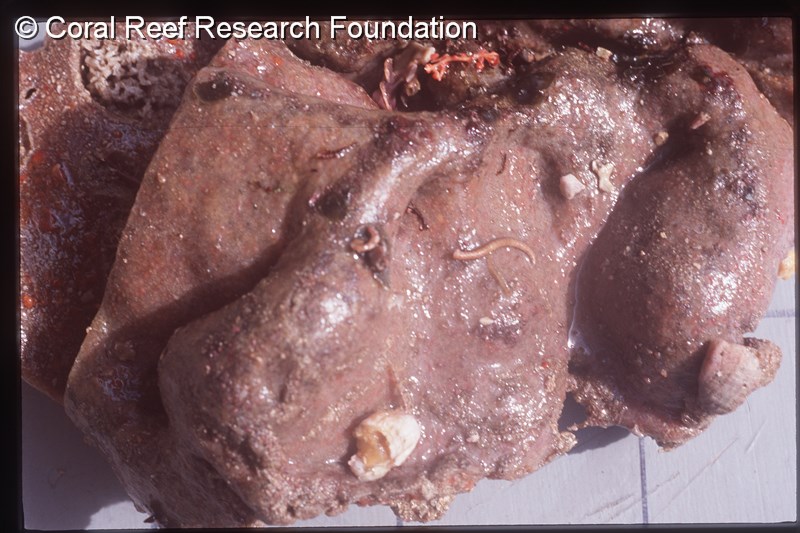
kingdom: Animalia
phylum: Chordata
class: Ascidiacea
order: Aplousobranchia
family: Protopolyclinidae
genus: Condominium
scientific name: Condominium
